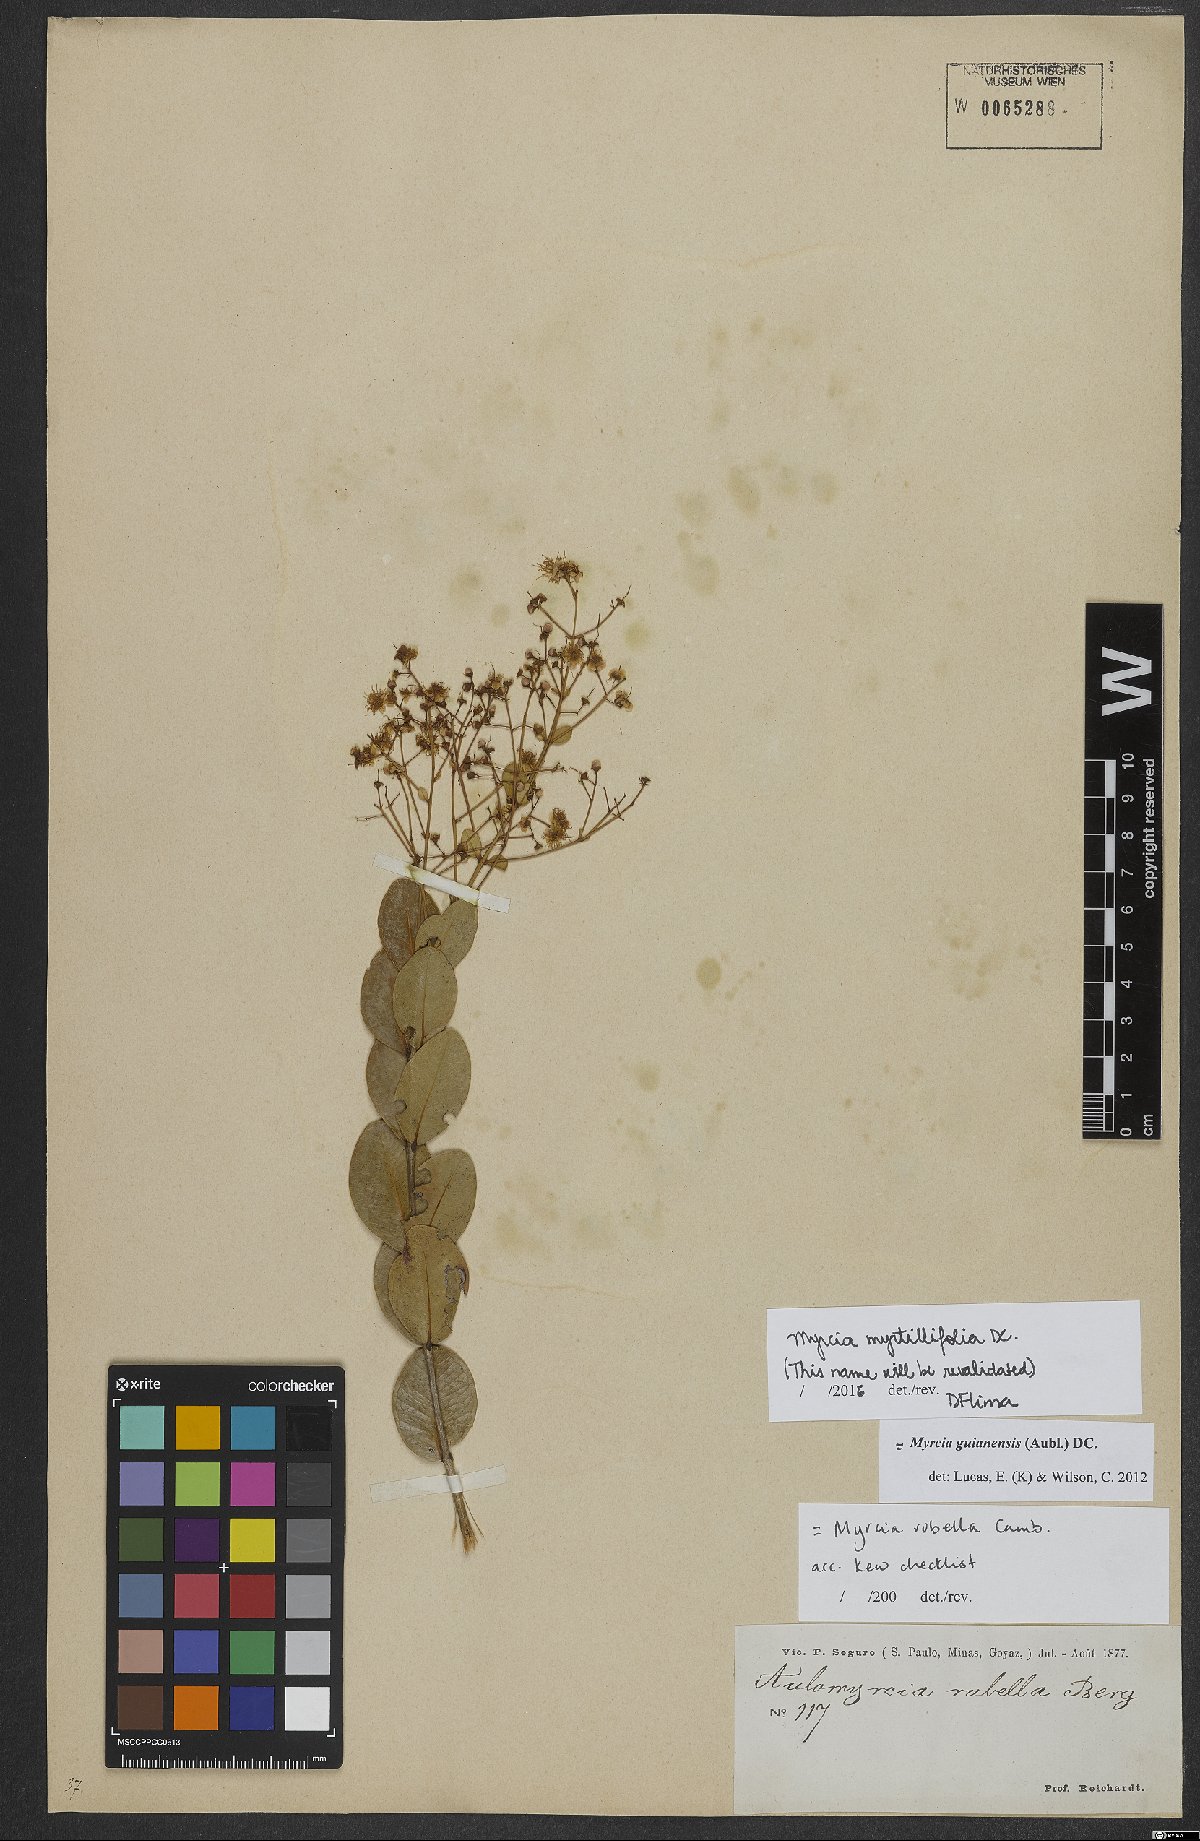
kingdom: Plantae
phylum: Tracheophyta
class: Magnoliopsida
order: Myrtales
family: Myrtaceae
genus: Myrcia
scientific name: Myrcia guianensis
